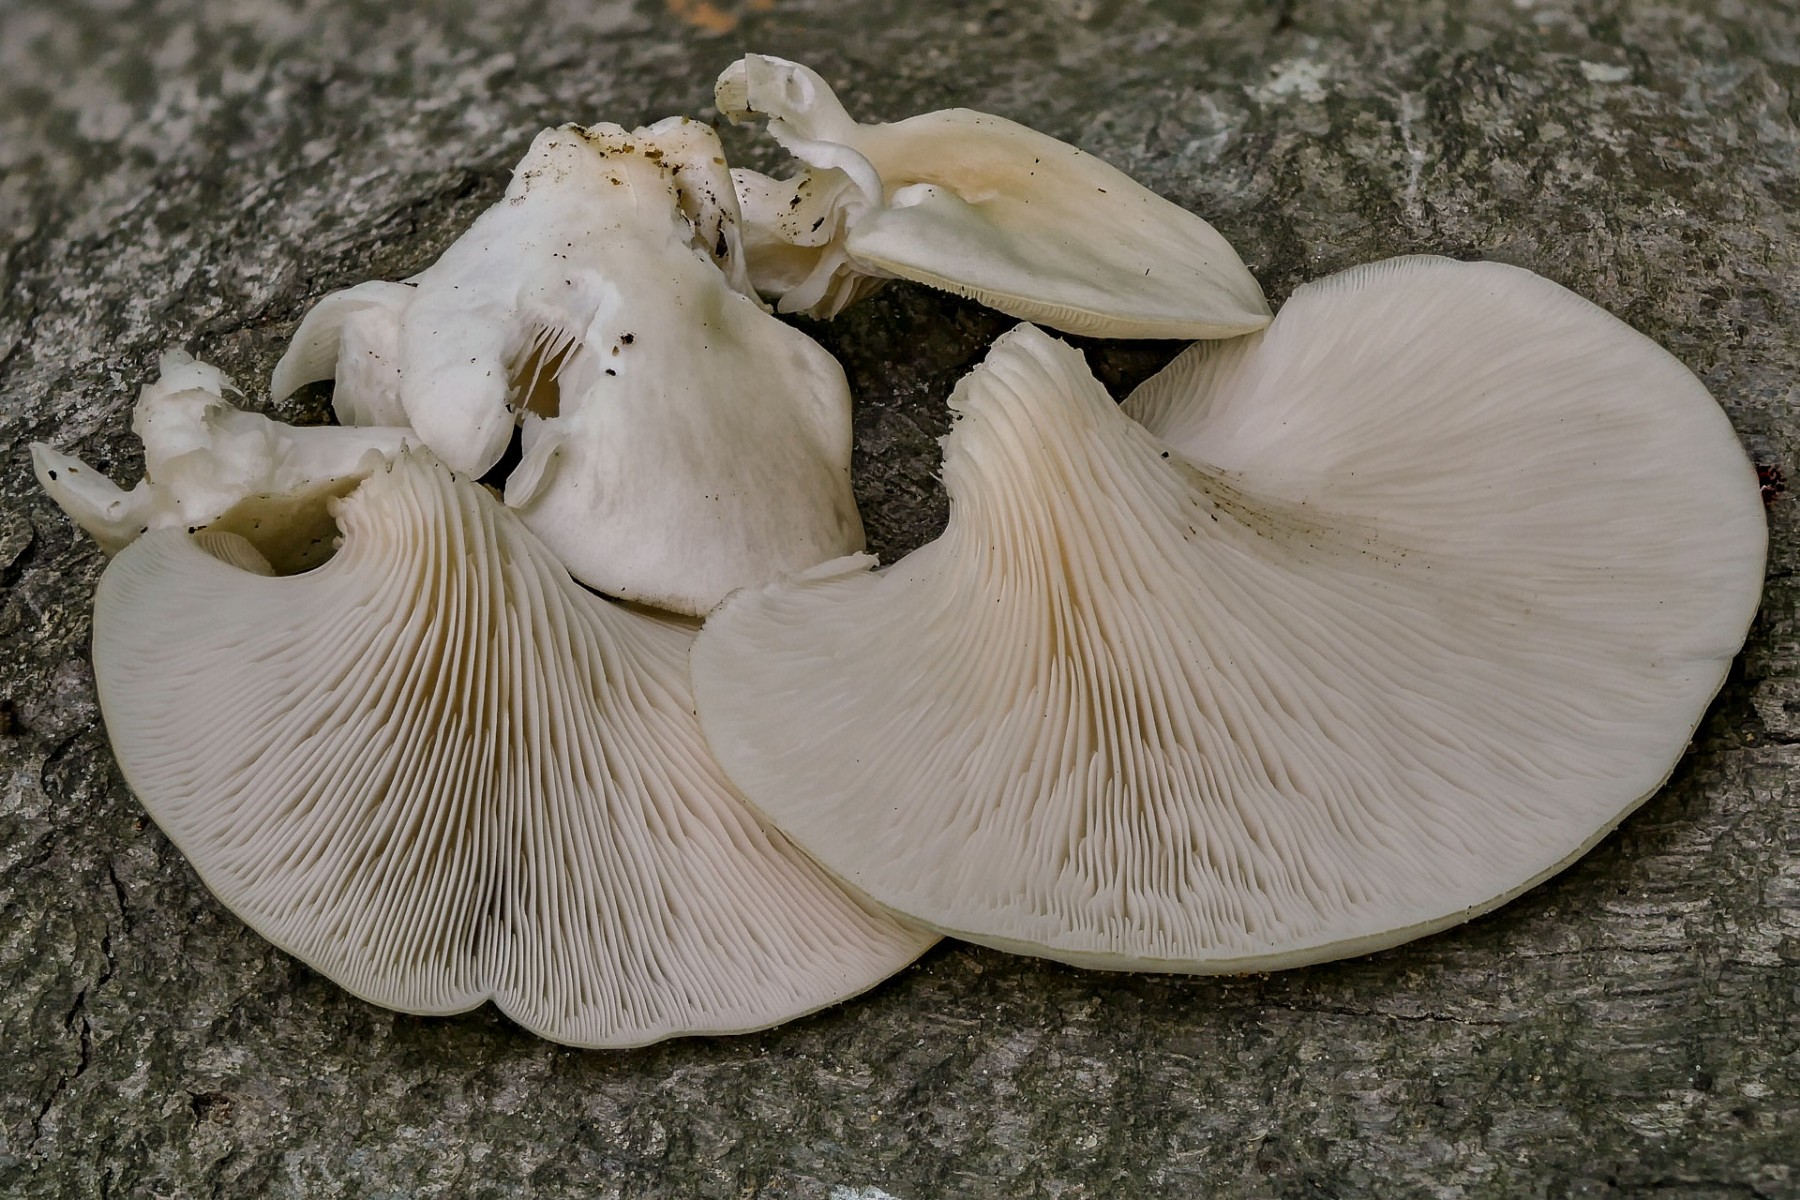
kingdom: Fungi
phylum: Basidiomycota
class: Agaricomycetes
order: Agaricales
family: Pleurotaceae
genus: Pleurotus
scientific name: Pleurotus pulmonarius
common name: sommer-østershat
